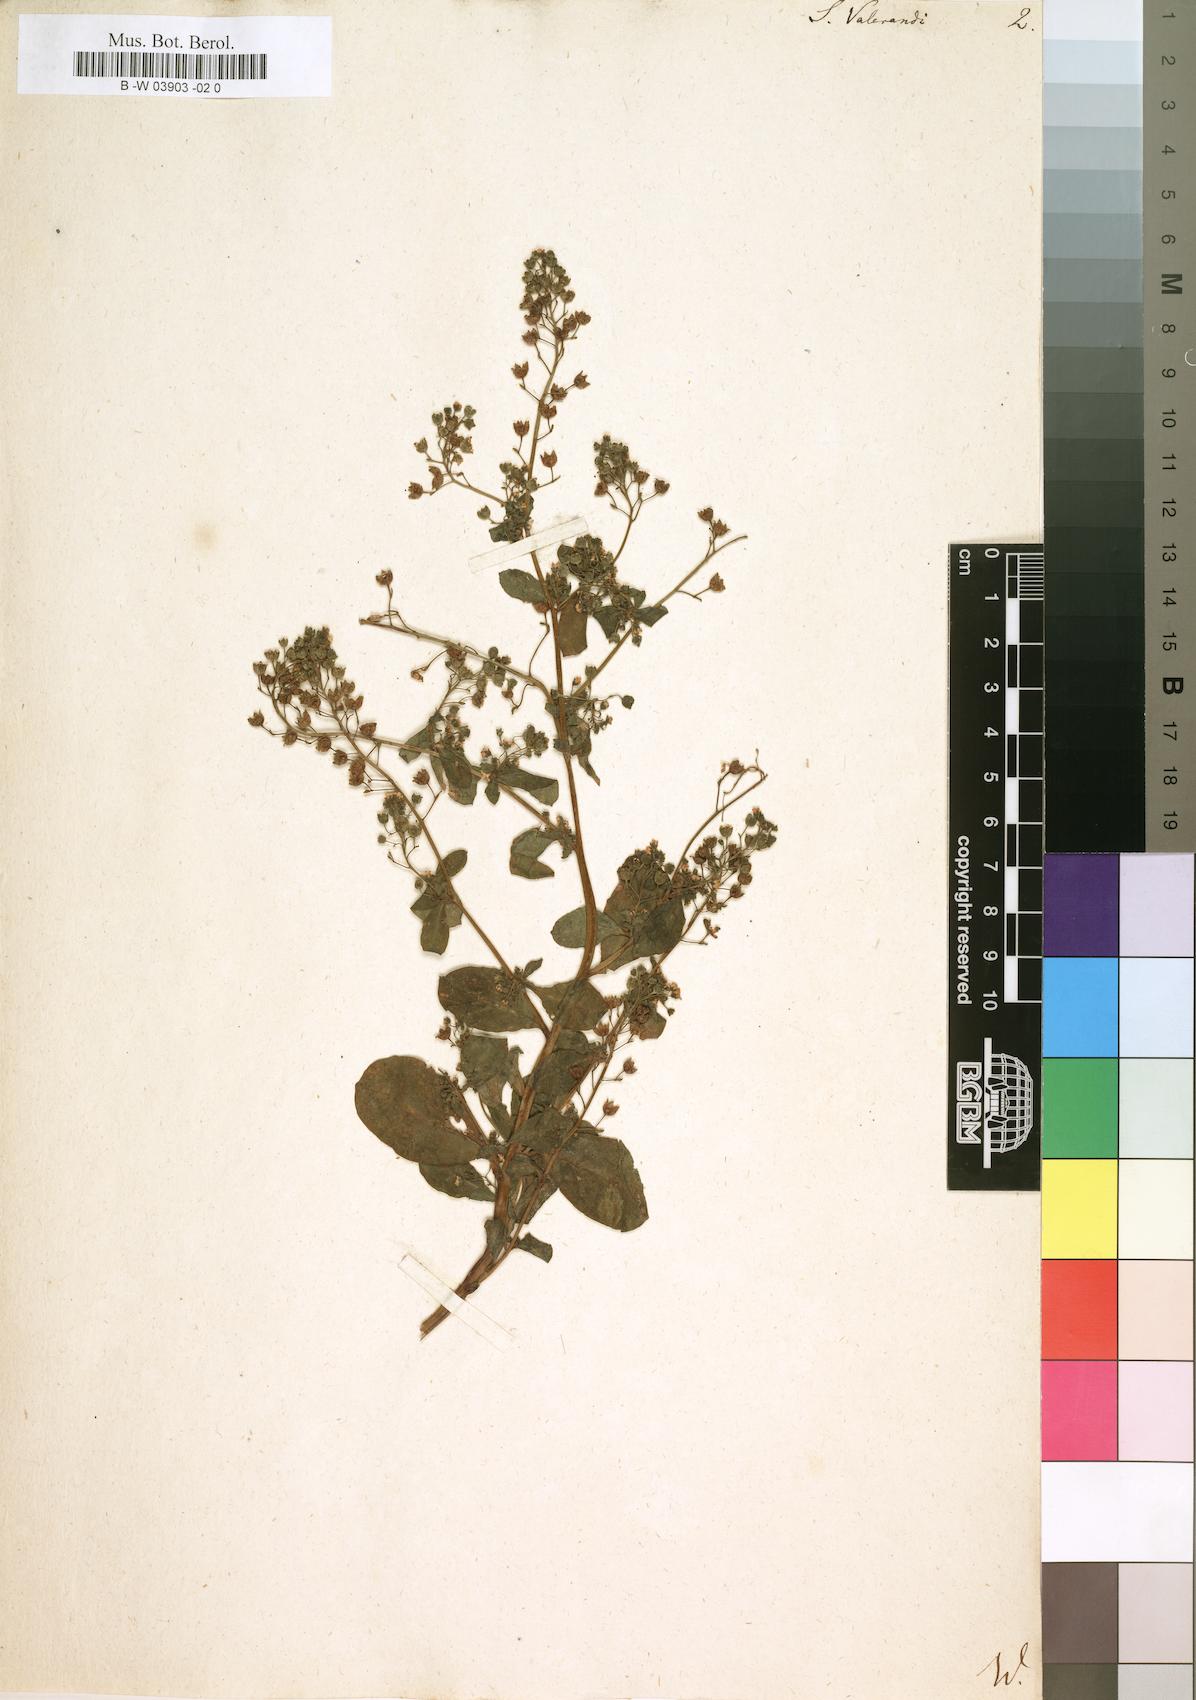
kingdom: Plantae
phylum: Tracheophyta
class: Magnoliopsida
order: Ericales
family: Primulaceae
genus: Samolus
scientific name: Samolus valerandi
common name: Brookweed
